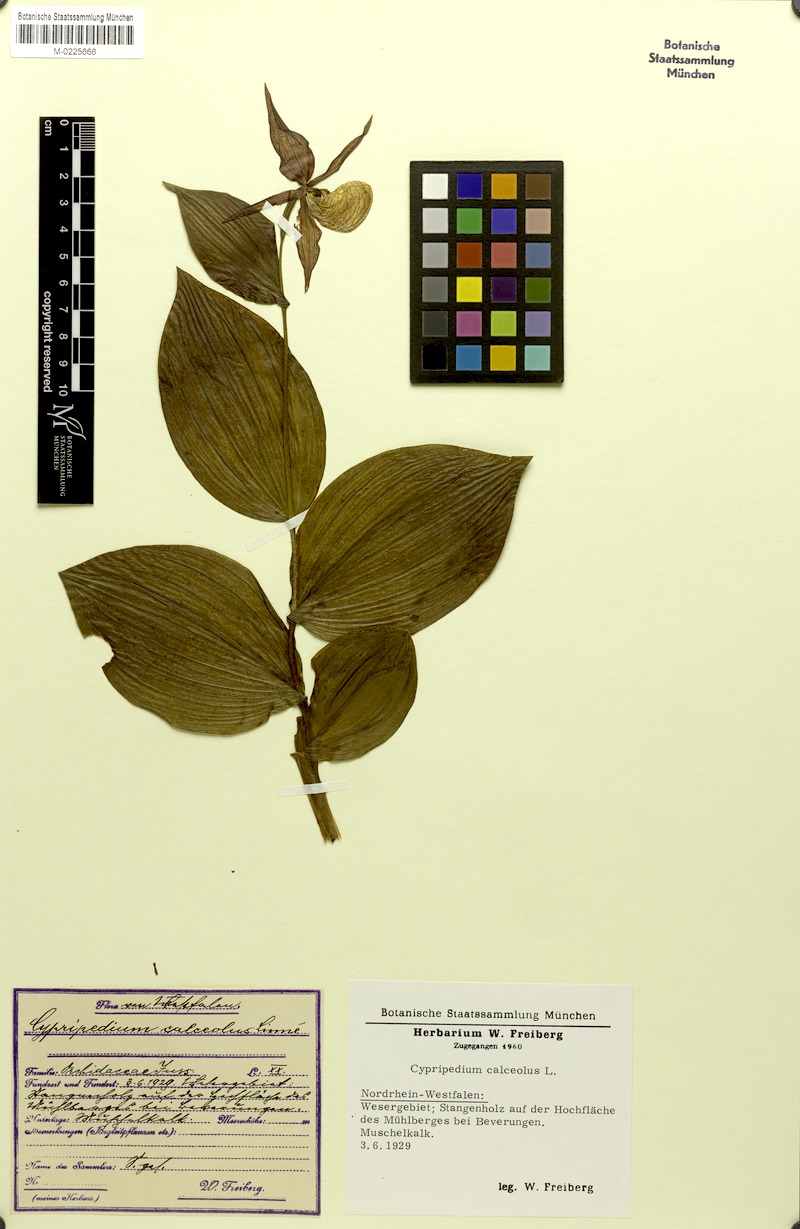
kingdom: Plantae
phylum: Tracheophyta
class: Liliopsida
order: Asparagales
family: Orchidaceae
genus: Cypripedium
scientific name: Cypripedium calceolus
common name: Lady's-slipper
